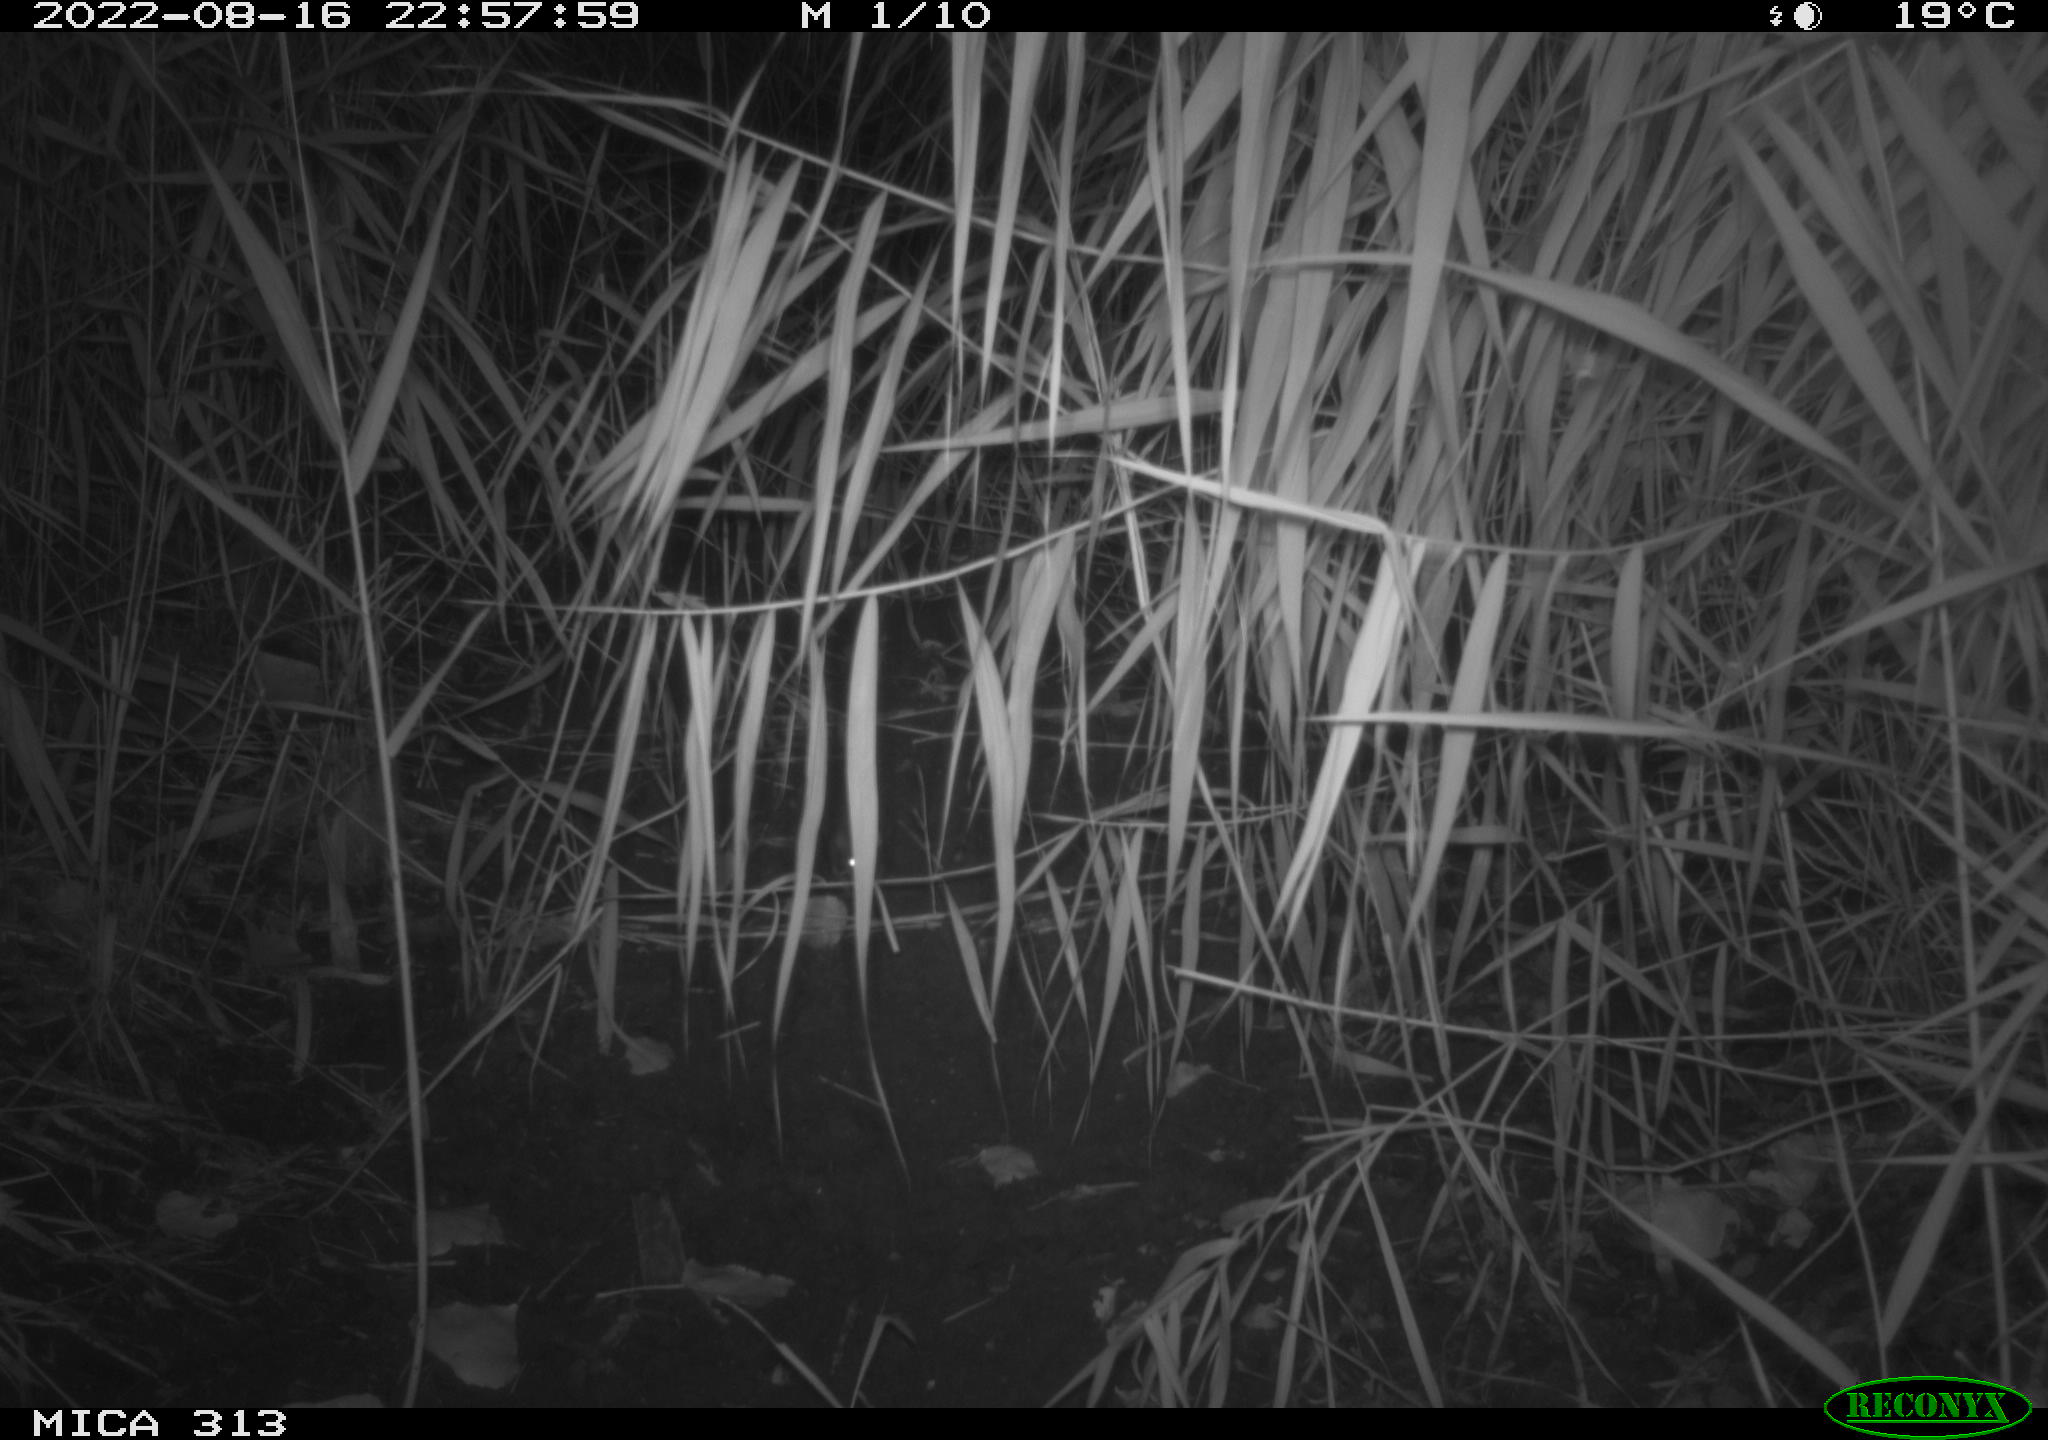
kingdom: Animalia
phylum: Chordata
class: Mammalia
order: Rodentia
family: Muridae
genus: Rattus
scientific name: Rattus norvegicus
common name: Brown rat
